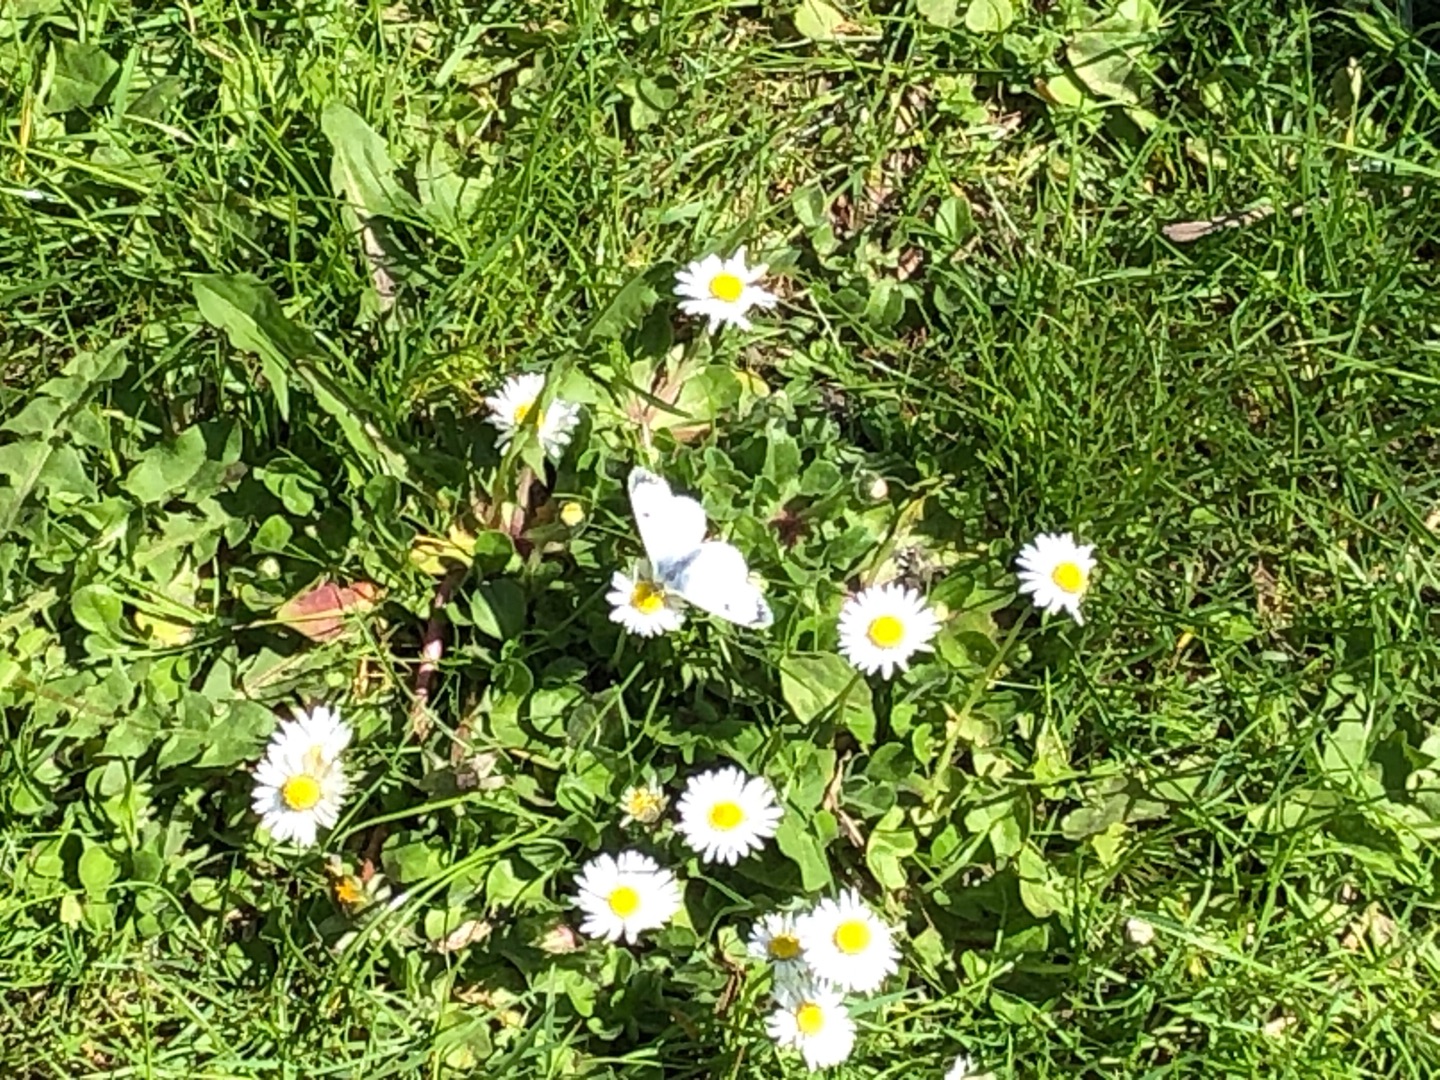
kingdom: Animalia
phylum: Arthropoda
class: Insecta
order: Lepidoptera
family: Pieridae
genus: Anthocharis
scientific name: Anthocharis cardamines
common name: Aurora
